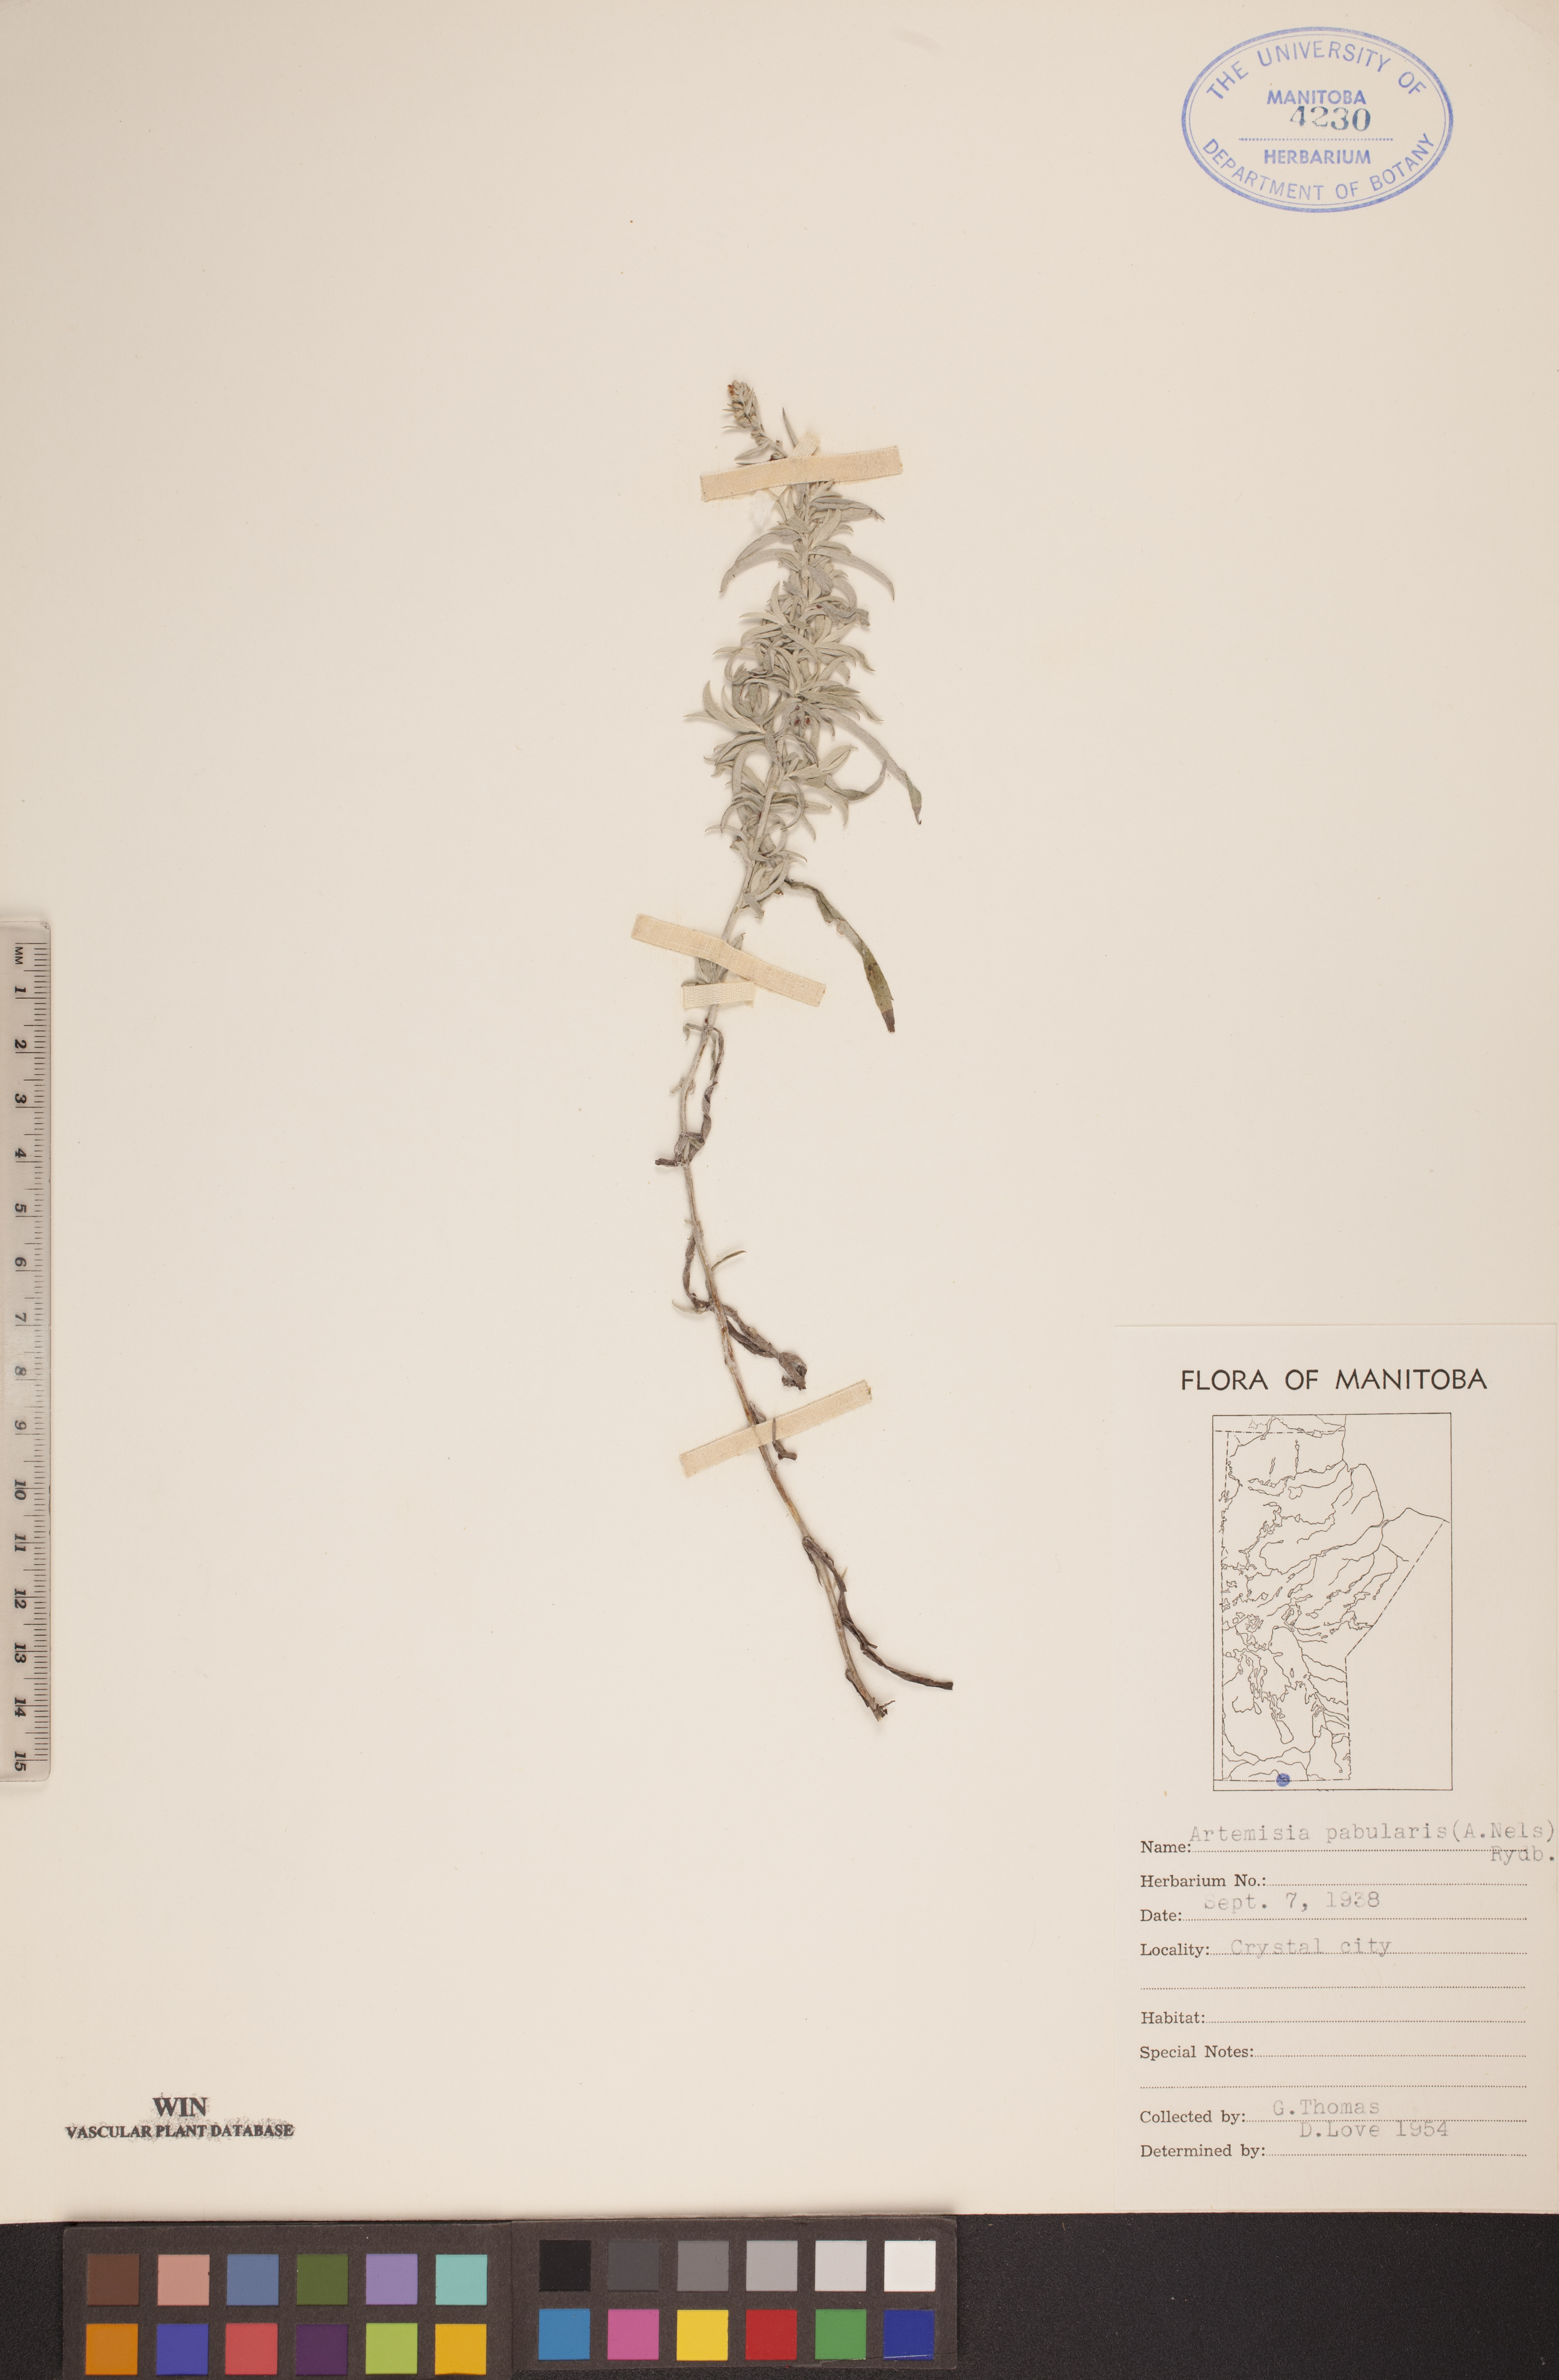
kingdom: Plantae
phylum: Tracheophyta
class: Magnoliopsida
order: Asterales
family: Asteraceae
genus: Artemisia
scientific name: Artemisia ludoviciana
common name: Western mugwort
